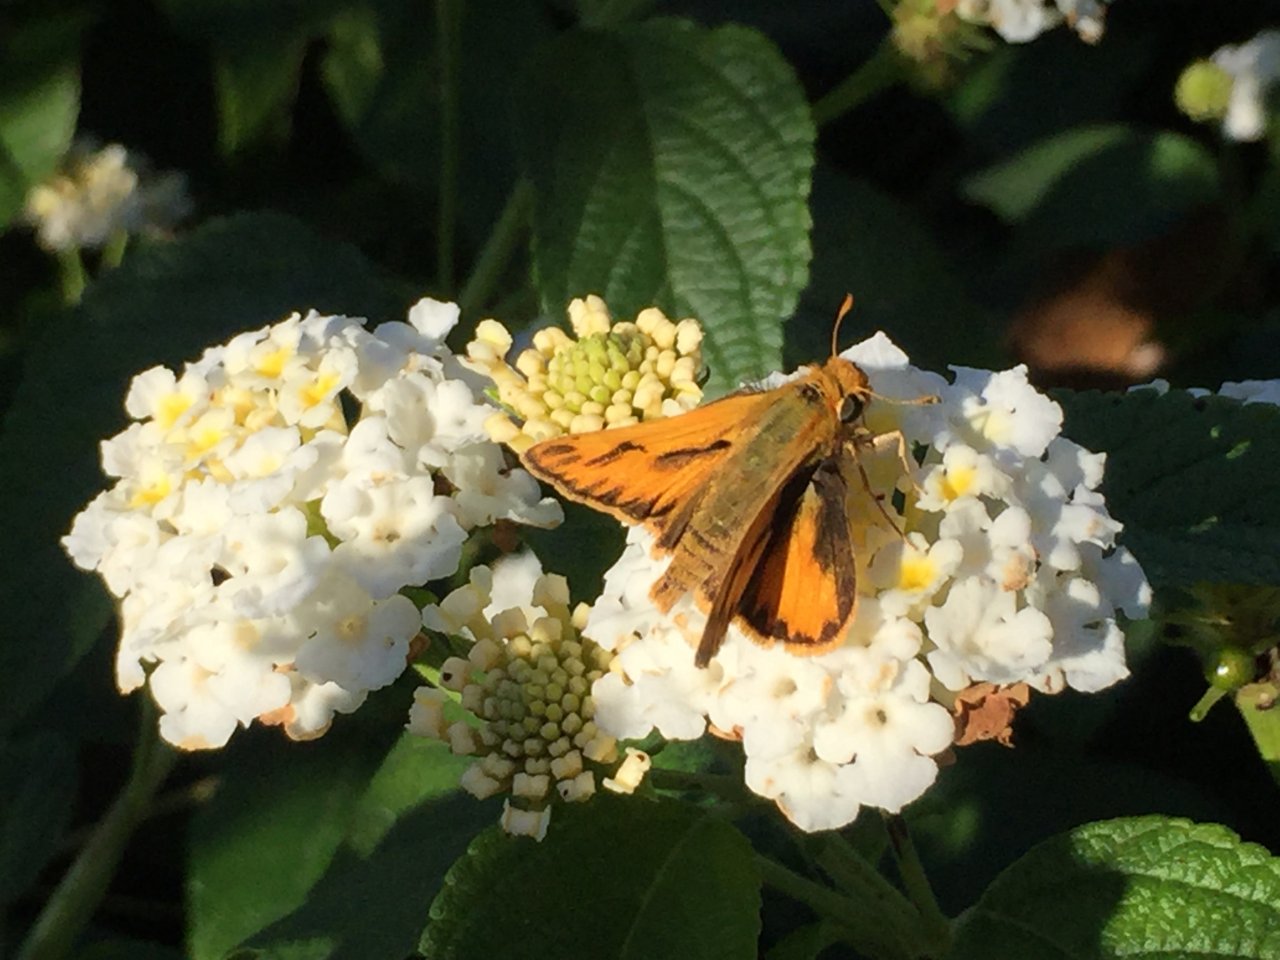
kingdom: Animalia
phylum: Arthropoda
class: Insecta
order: Lepidoptera
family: Hesperiidae
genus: Hylephila
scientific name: Hylephila phyleus
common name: Fiery Skipper
